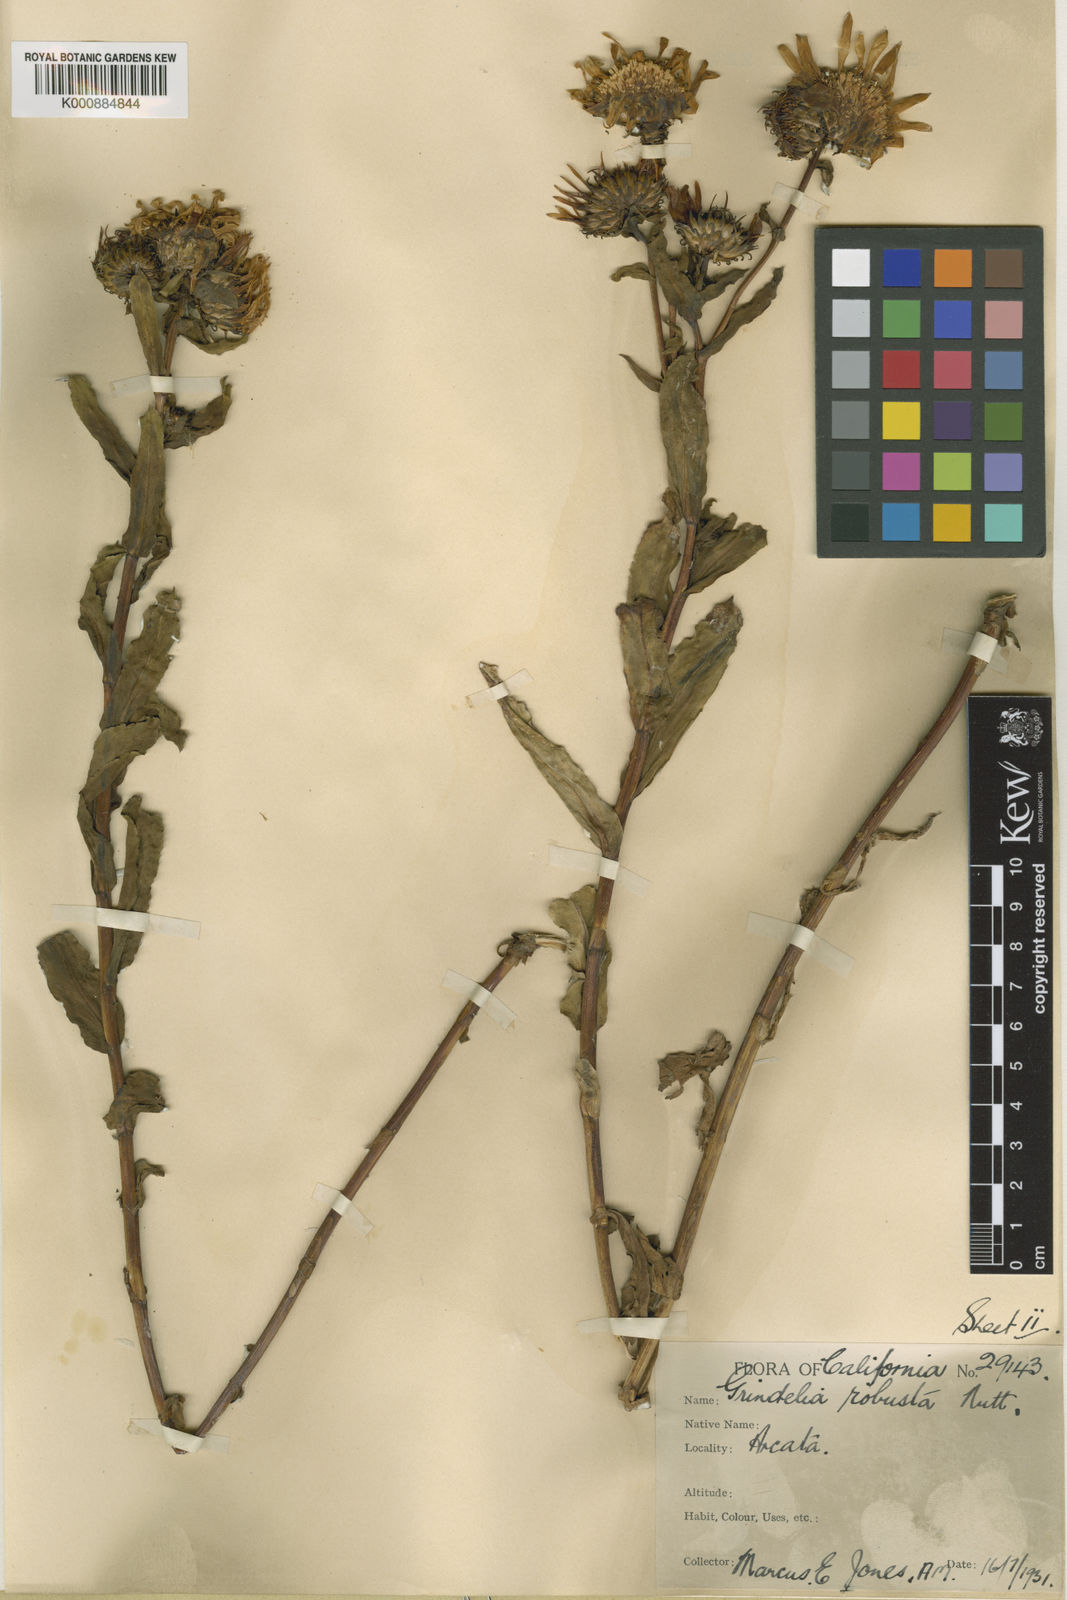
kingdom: Plantae
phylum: Tracheophyta
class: Magnoliopsida
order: Asterales
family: Asteraceae
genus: Grindelia
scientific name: Grindelia hirsutula
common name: Hairy gumweed
